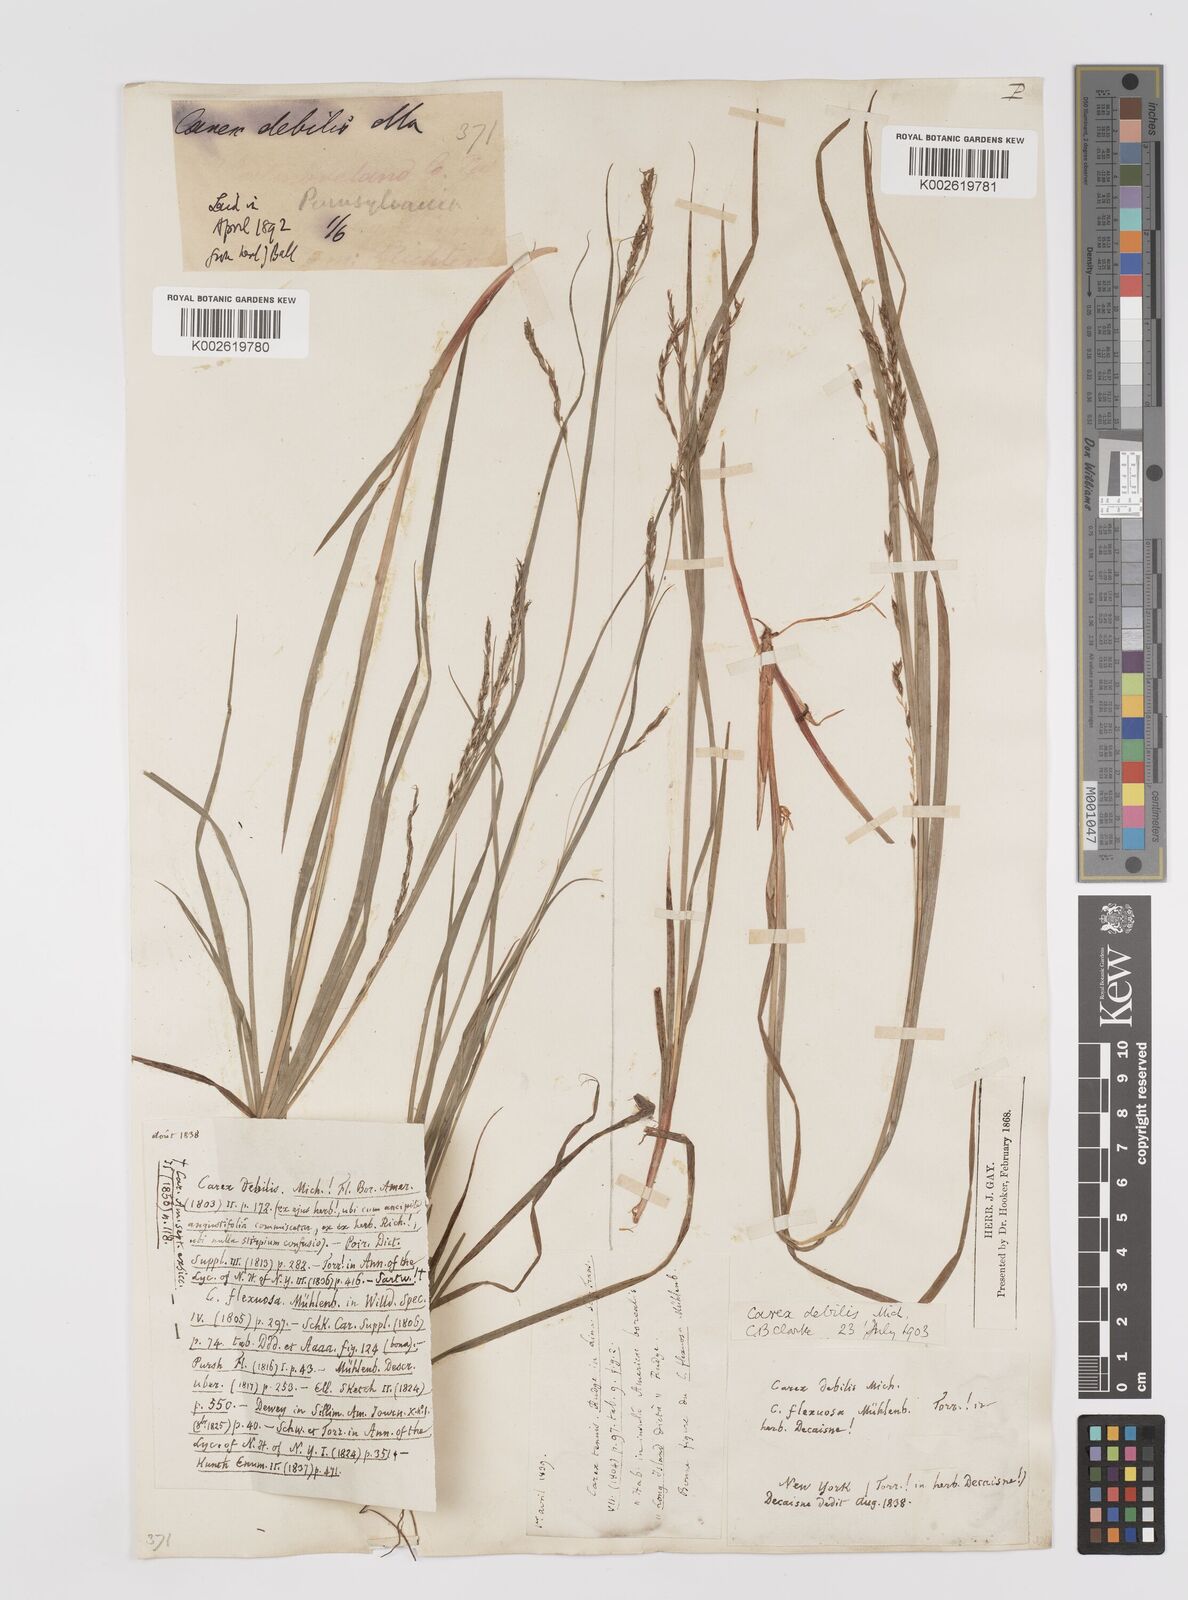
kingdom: Plantae
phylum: Tracheophyta
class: Liliopsida
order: Poales
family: Cyperaceae
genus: Carex
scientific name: Carex debilis
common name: White-edge sedge
